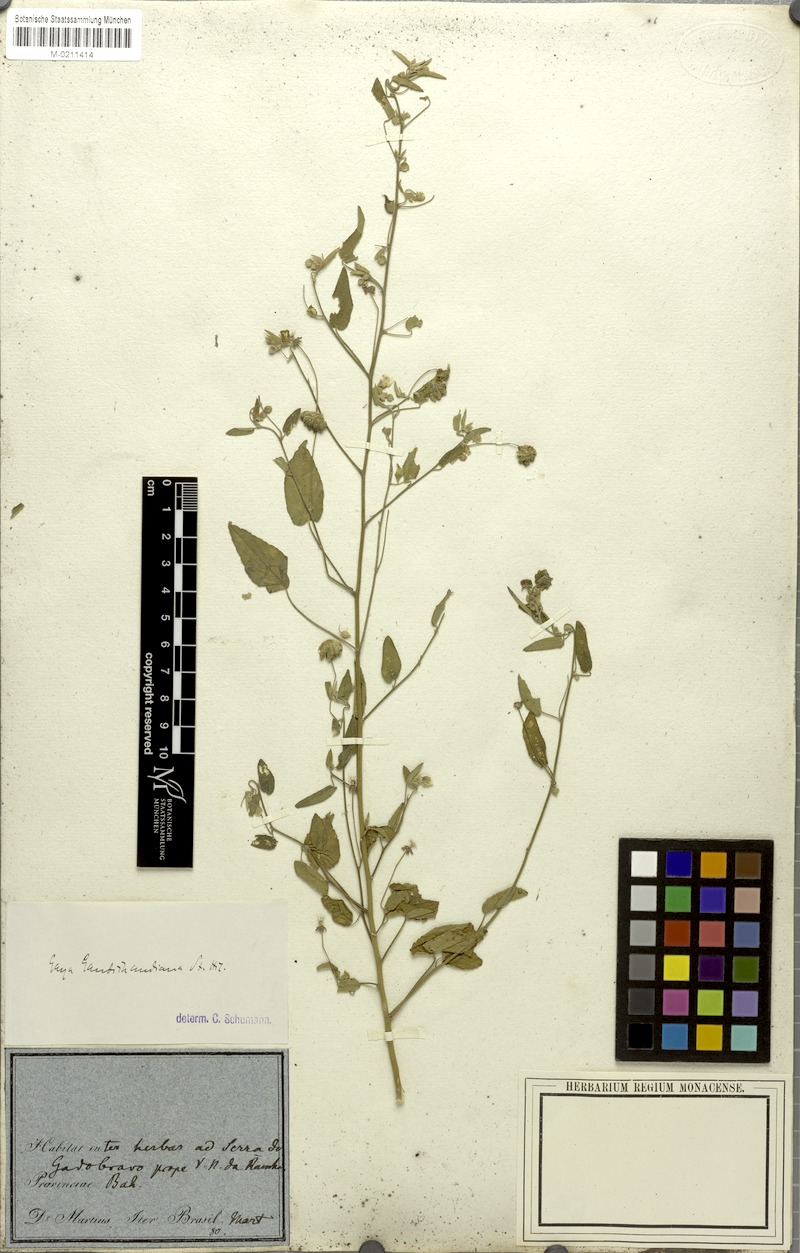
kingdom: Plantae
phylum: Tracheophyta
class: Magnoliopsida
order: Malvales
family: Malvaceae
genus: Gaya
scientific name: Gaya gaudichaudiana
